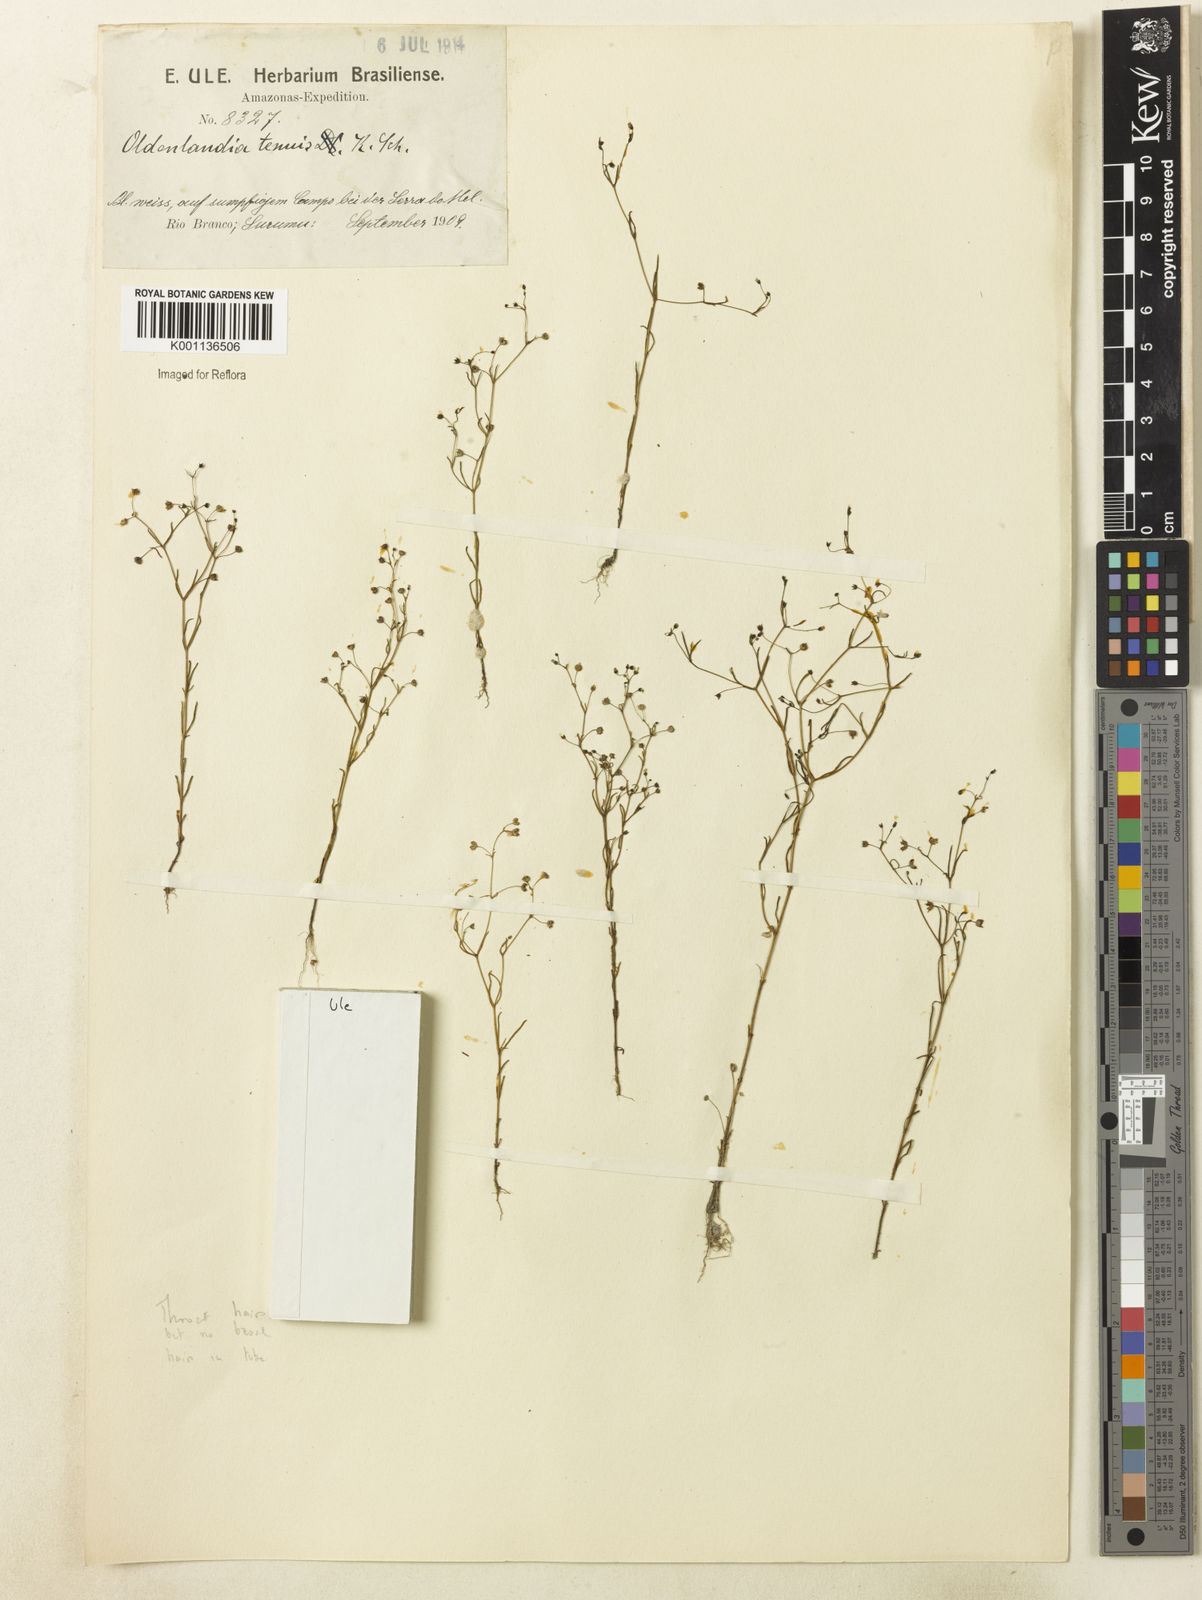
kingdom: Plantae
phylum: Tracheophyta
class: Magnoliopsida
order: Gentianales
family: Rubiaceae
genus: Oldenlandia
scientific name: Oldenlandia tenuis
